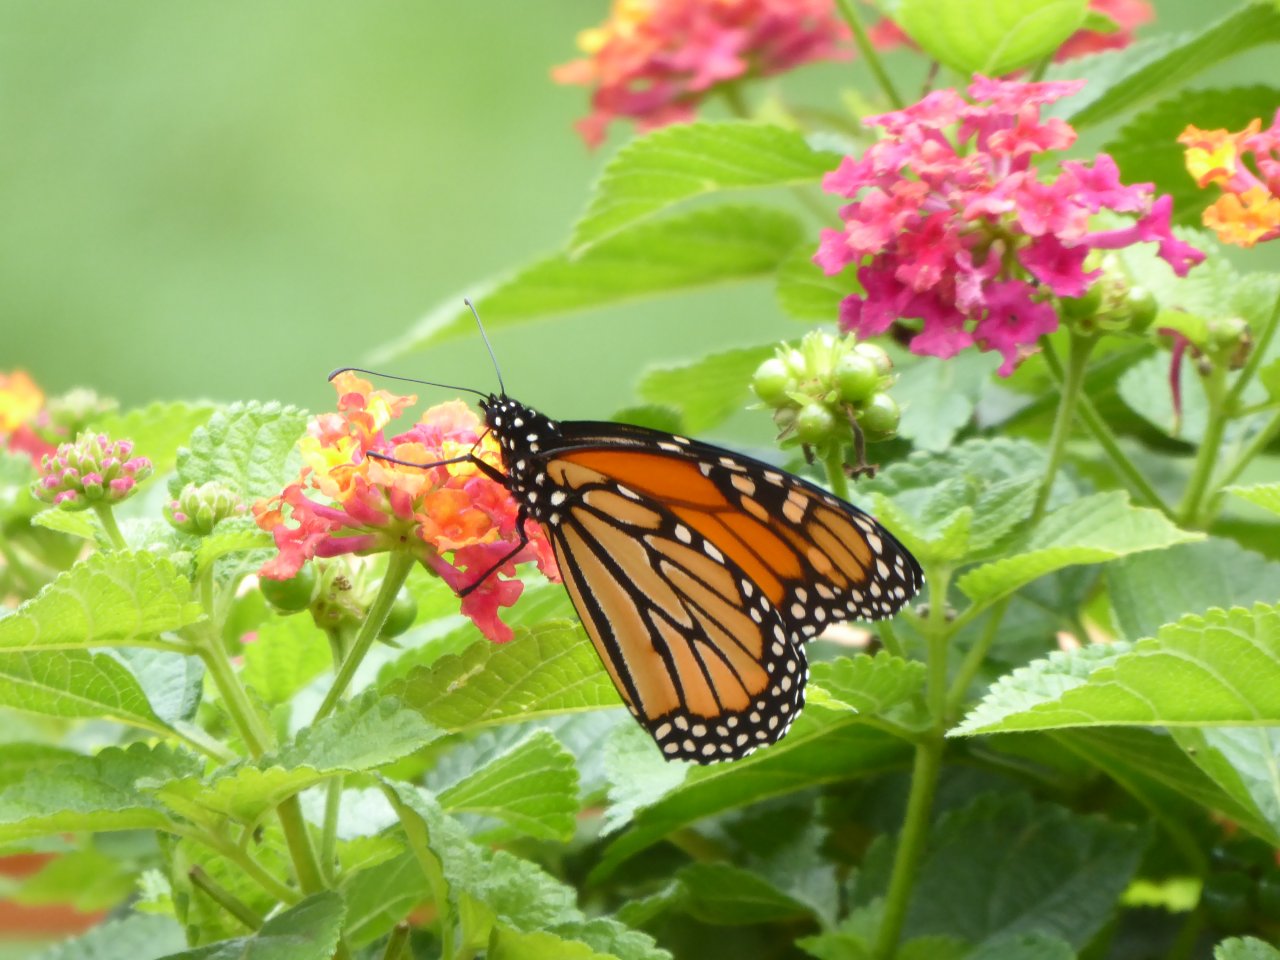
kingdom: Animalia
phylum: Arthropoda
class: Insecta
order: Lepidoptera
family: Nymphalidae
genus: Danaus
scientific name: Danaus plexippus
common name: Monarch
